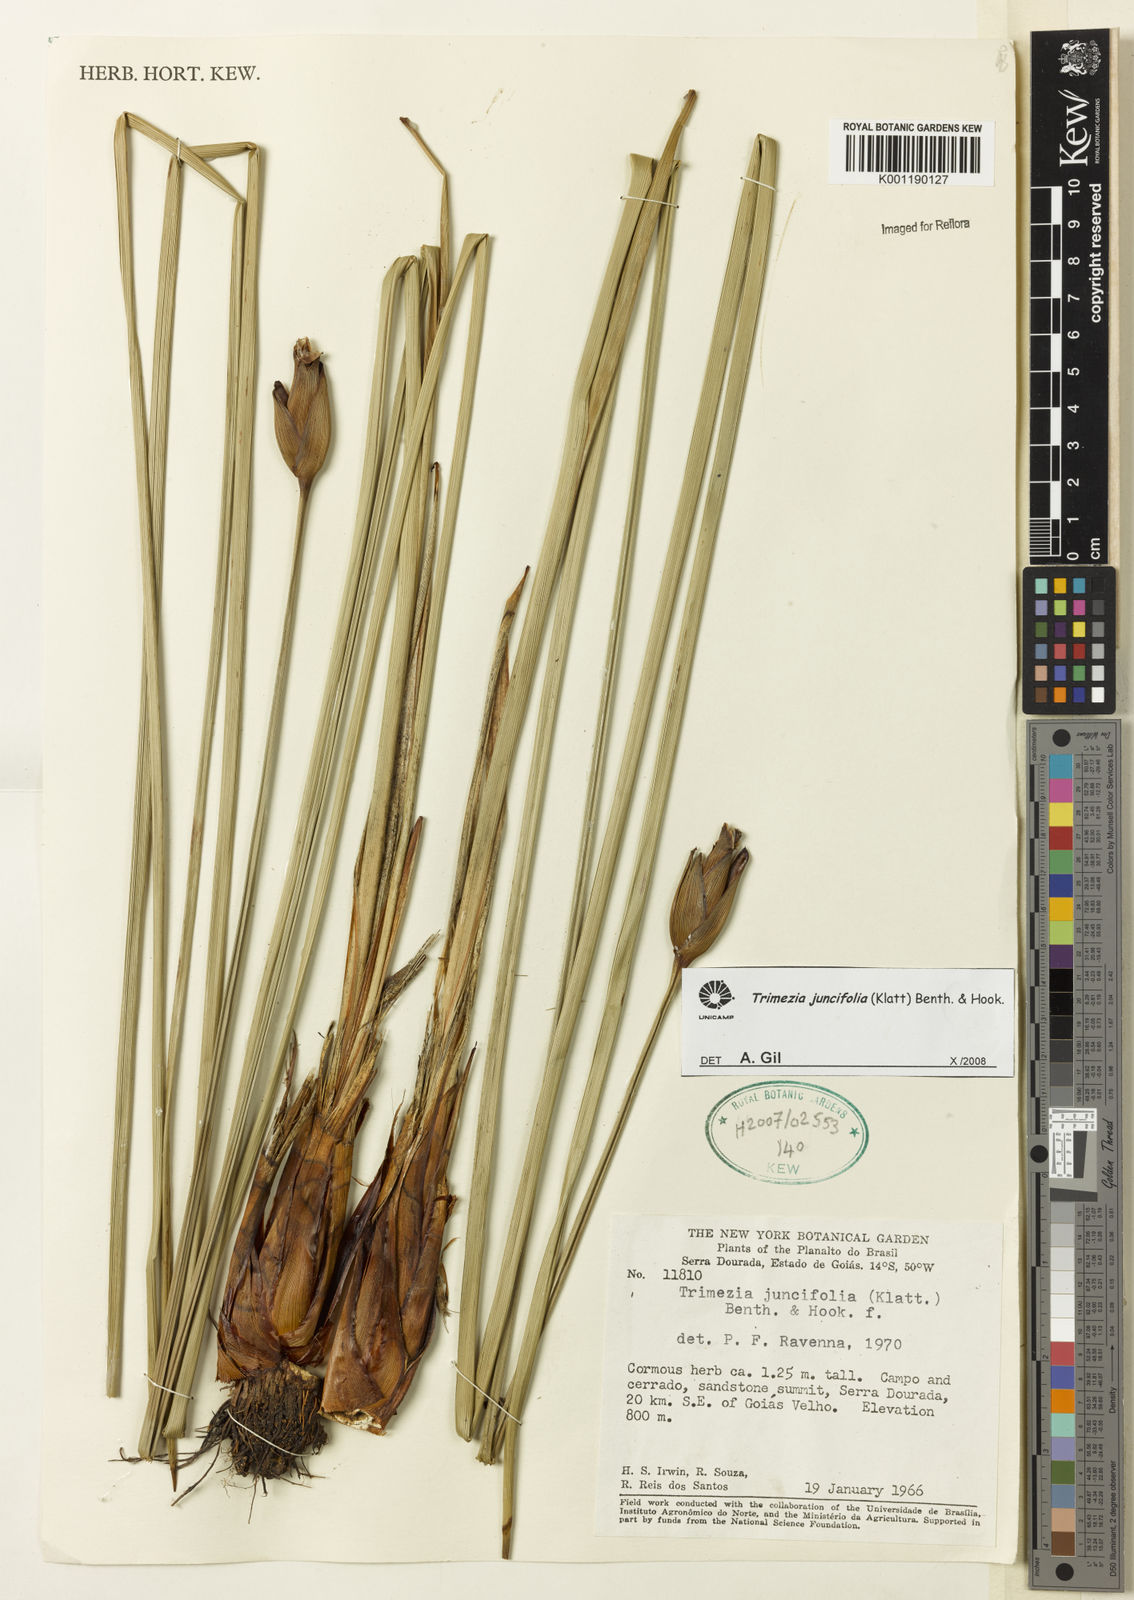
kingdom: Plantae
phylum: Tracheophyta
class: Liliopsida
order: Asparagales
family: Iridaceae
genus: Trimezia
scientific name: Trimezia juncifolia
